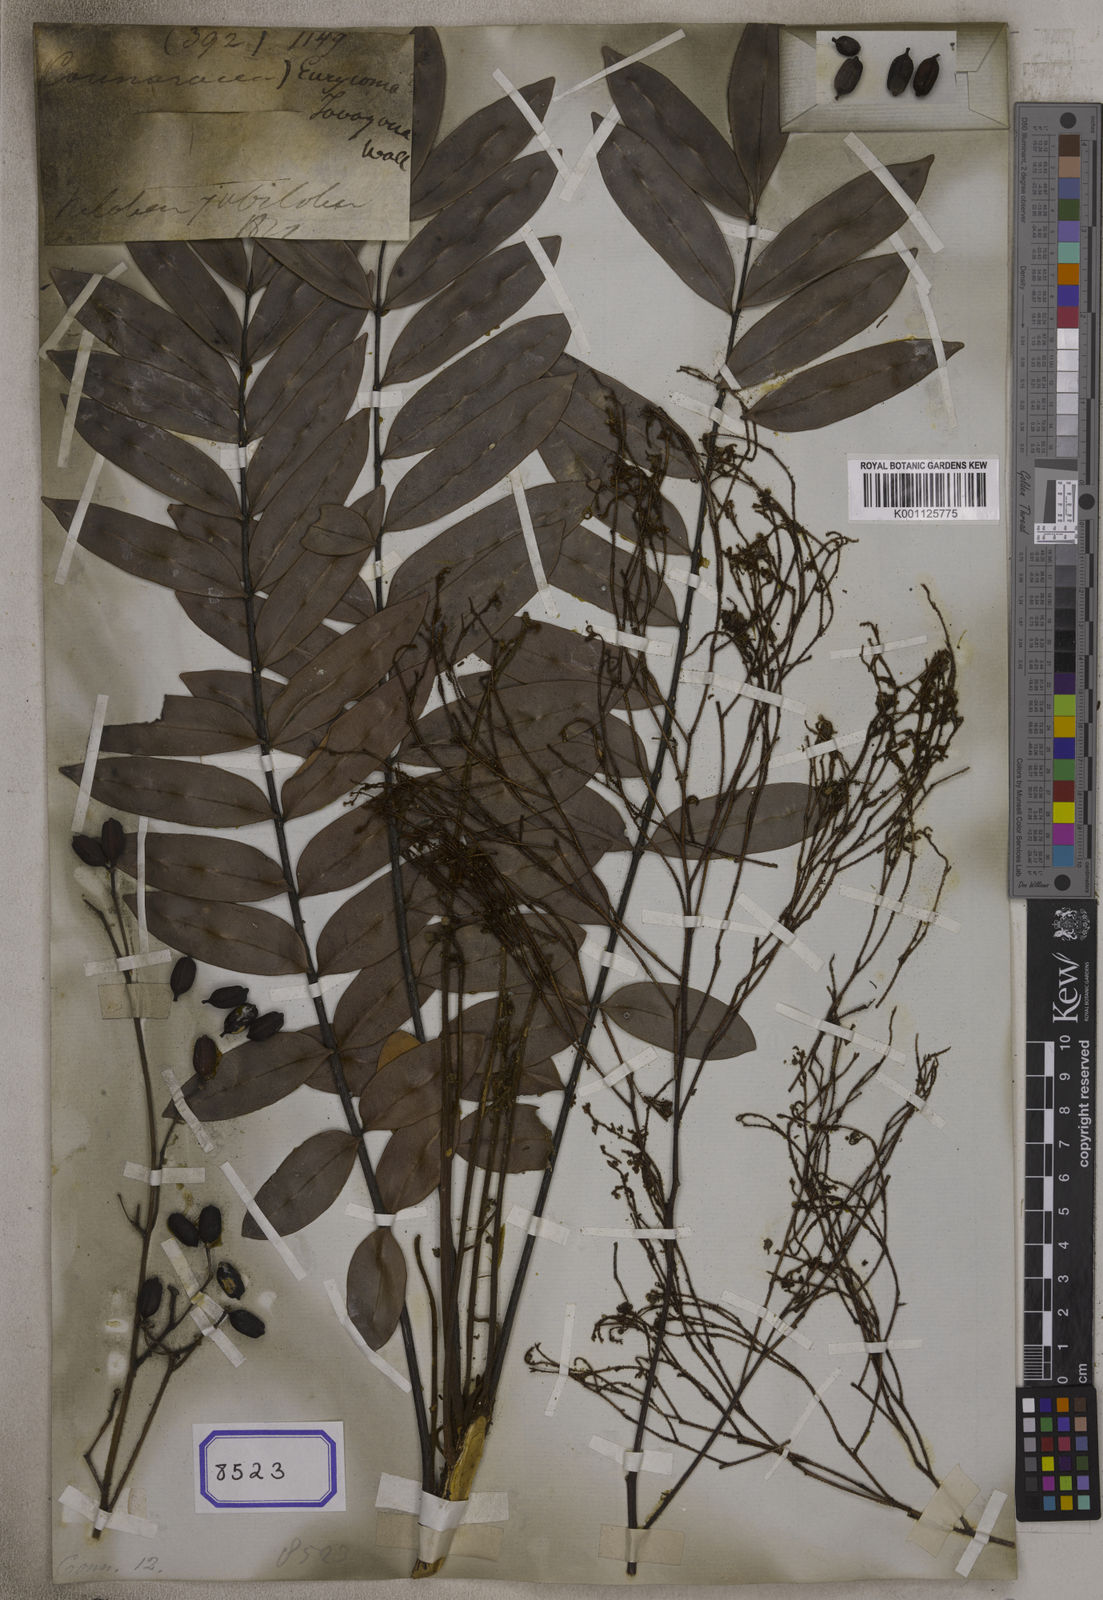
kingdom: Plantae
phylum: Tracheophyta
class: Magnoliopsida
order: Sapindales
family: Simaroubaceae
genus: Eurycoma
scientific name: Eurycoma longifolia
